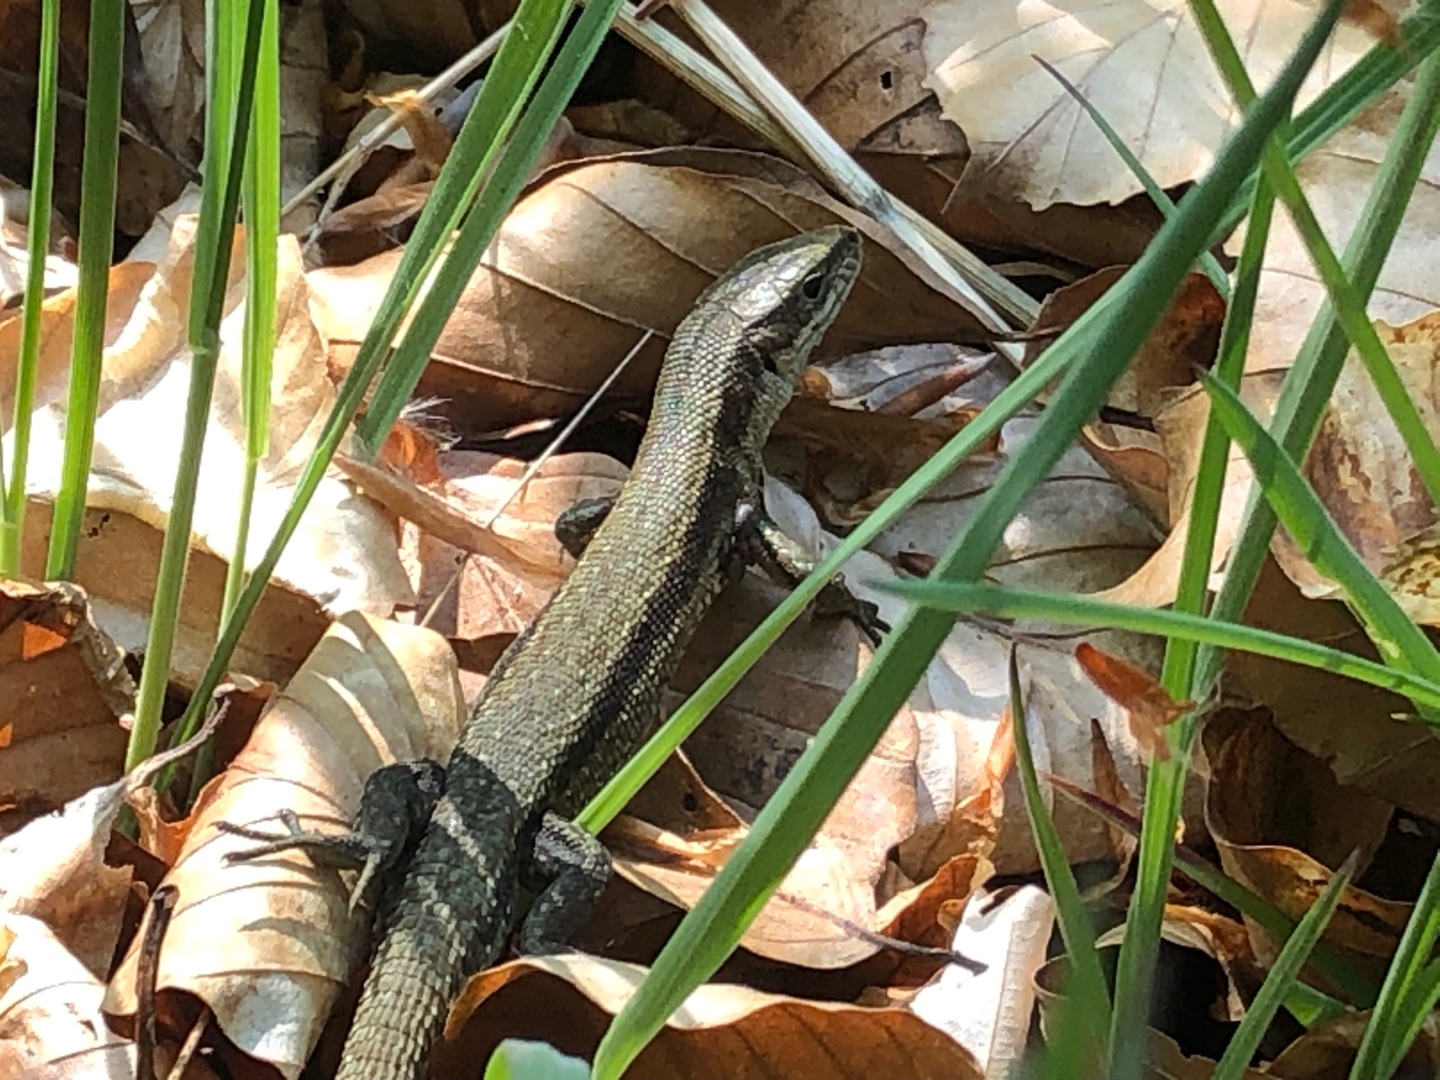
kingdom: Animalia
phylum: Chordata
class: Squamata
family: Lacertidae
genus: Zootoca
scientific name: Zootoca vivipara
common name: Skovfirben
